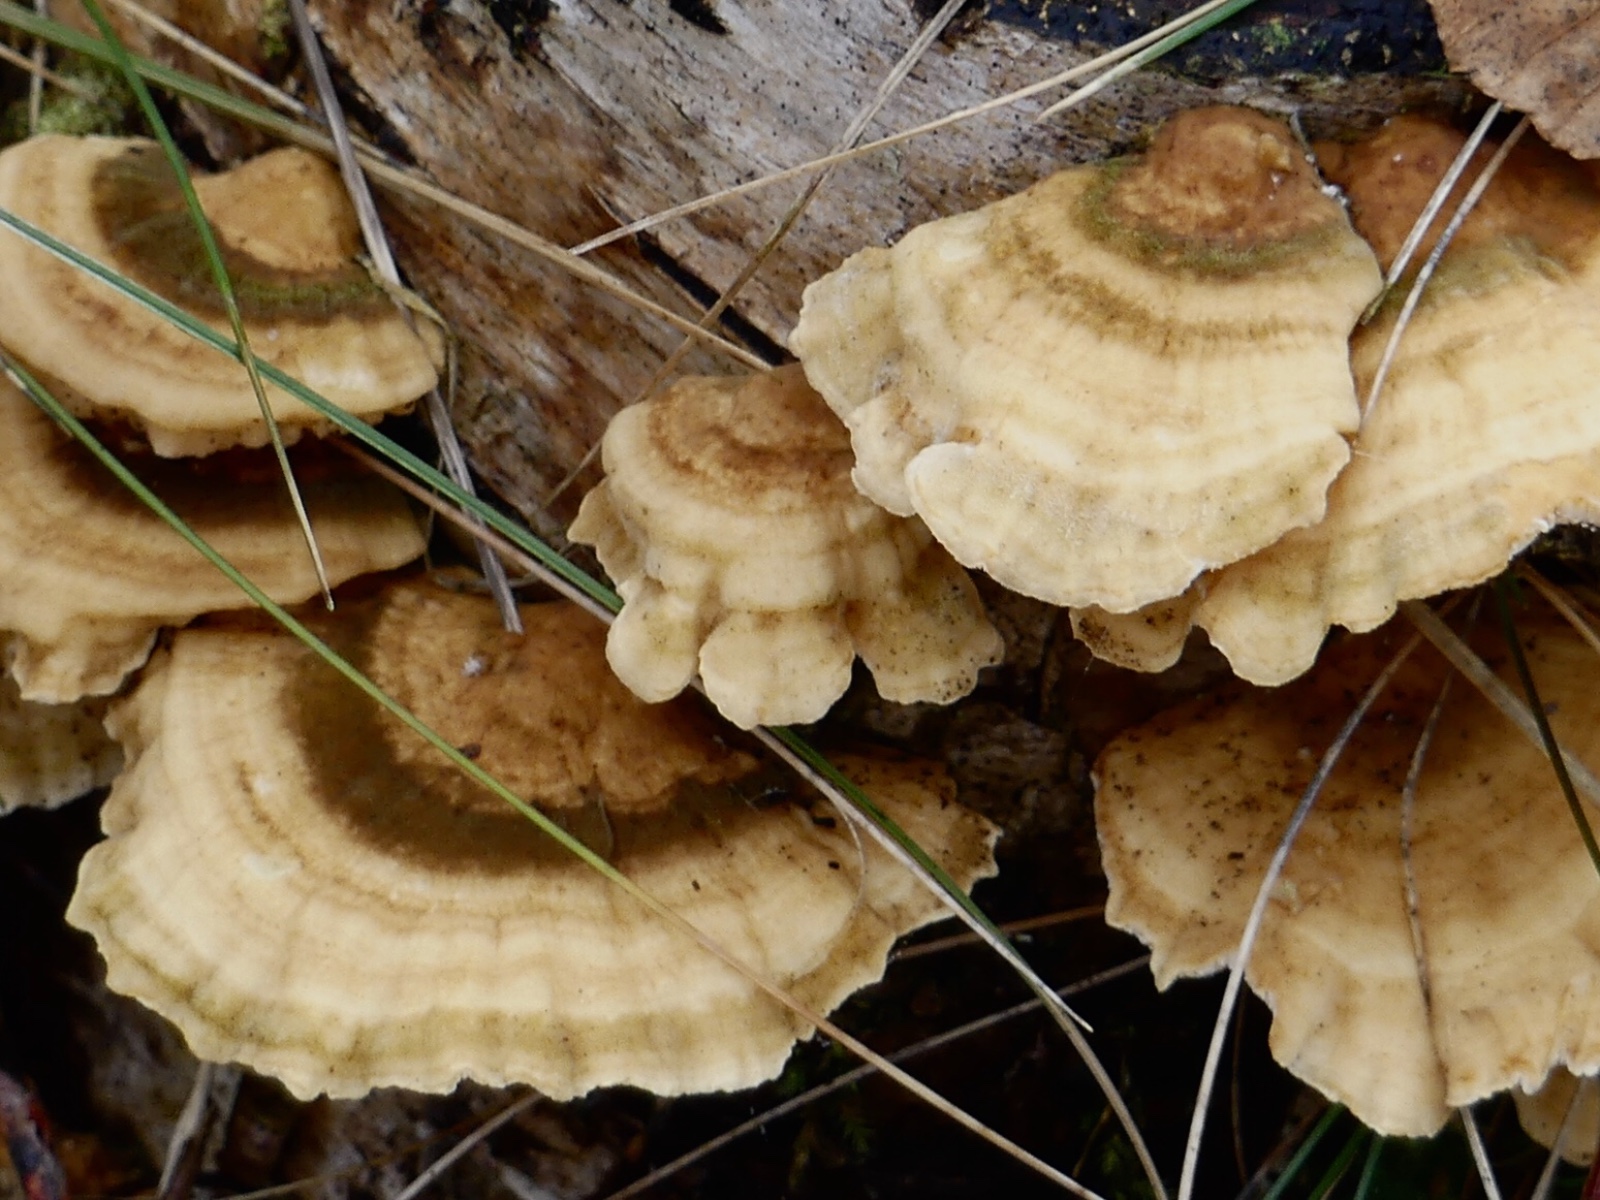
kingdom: Fungi
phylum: Basidiomycota
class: Agaricomycetes
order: Polyporales
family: Polyporaceae
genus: Trametes
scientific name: Trametes ochracea
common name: bæltet læderporesvamp
